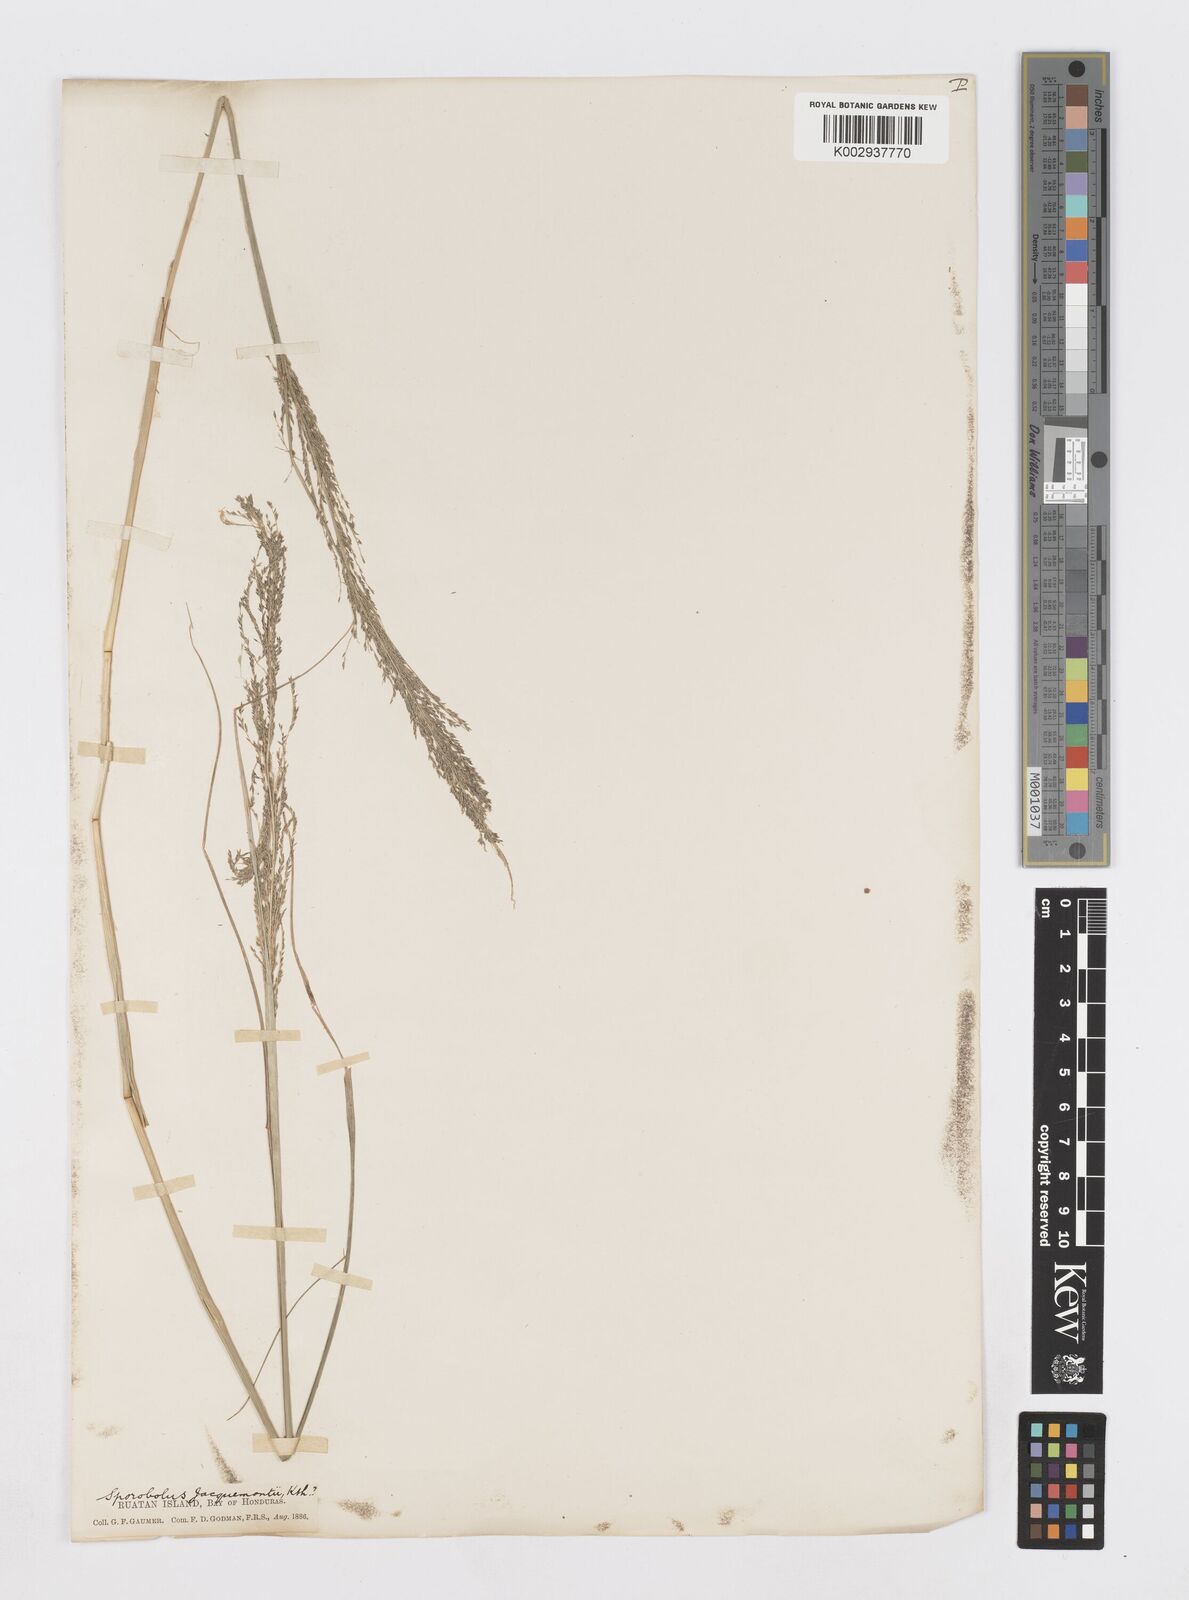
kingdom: Plantae
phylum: Tracheophyta
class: Liliopsida
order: Poales
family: Poaceae
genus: Sporobolus
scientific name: Sporobolus pyramidalis
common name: West indian dropseed
